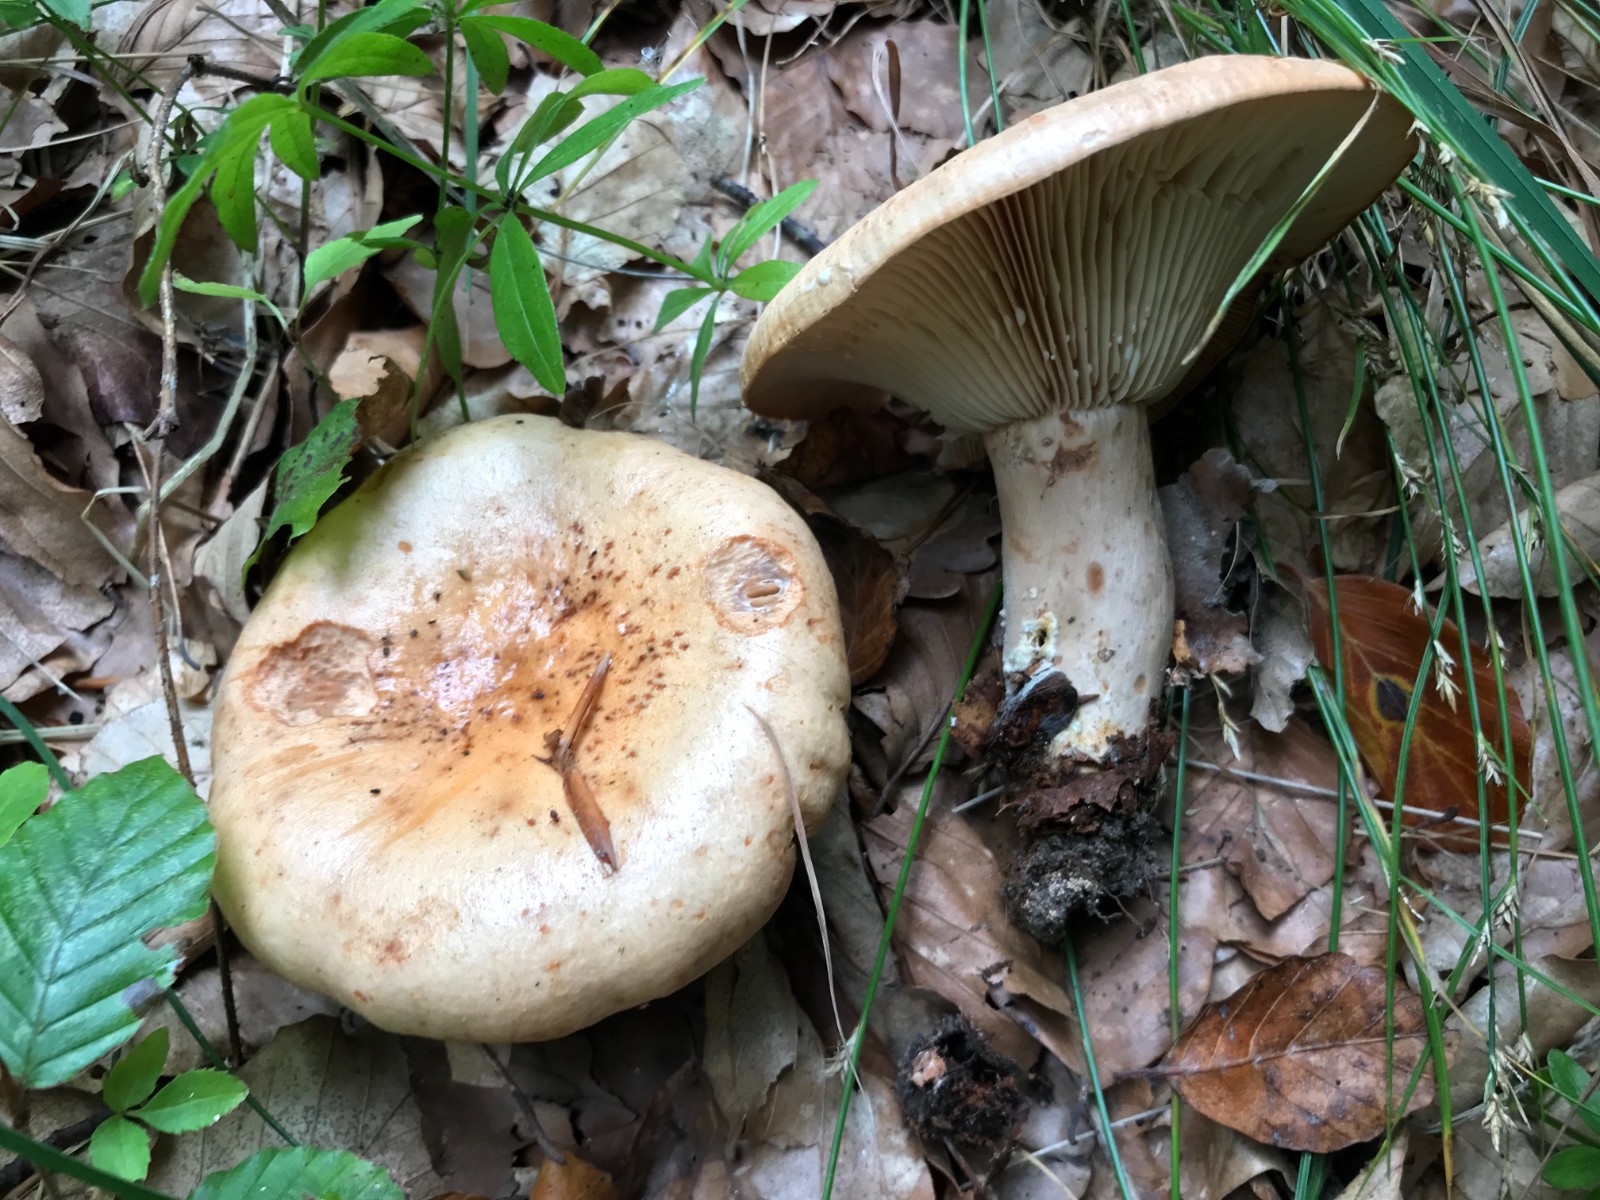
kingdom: Fungi
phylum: Basidiomycota
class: Agaricomycetes
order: Russulales
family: Russulaceae
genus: Lactarius
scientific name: Lactarius pallidus
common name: bleg mælkehat
